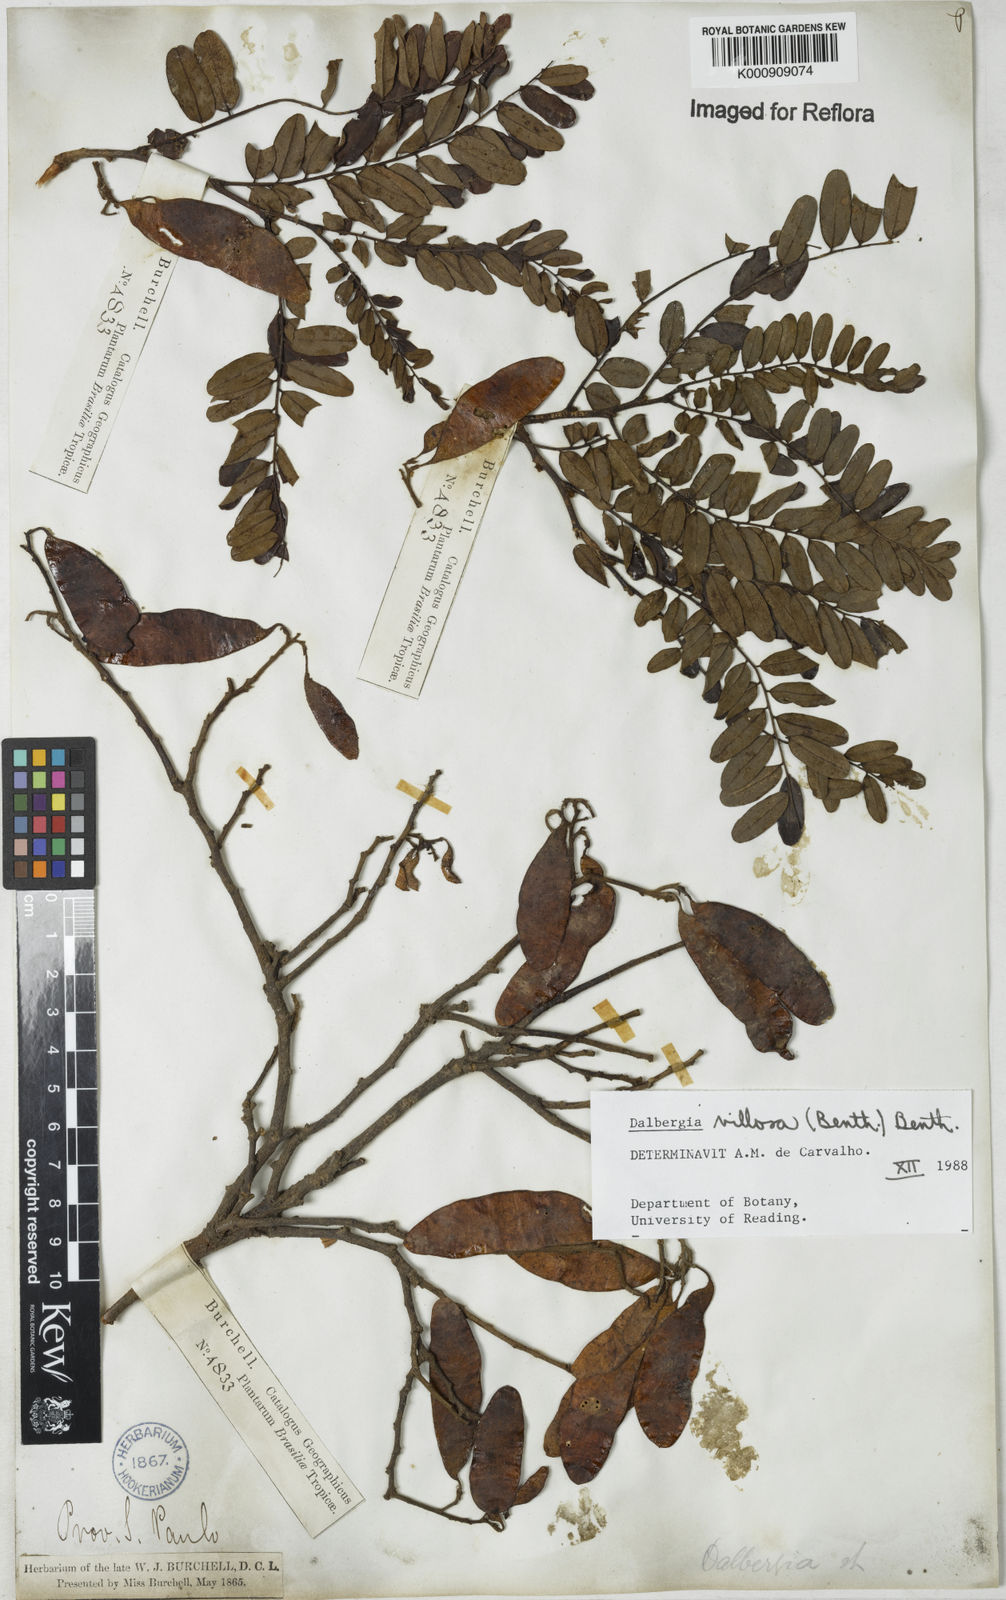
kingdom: Plantae
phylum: Tracheophyta
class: Magnoliopsida
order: Fabales
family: Fabaceae
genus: Dalbergia
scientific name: Dalbergia villosa
